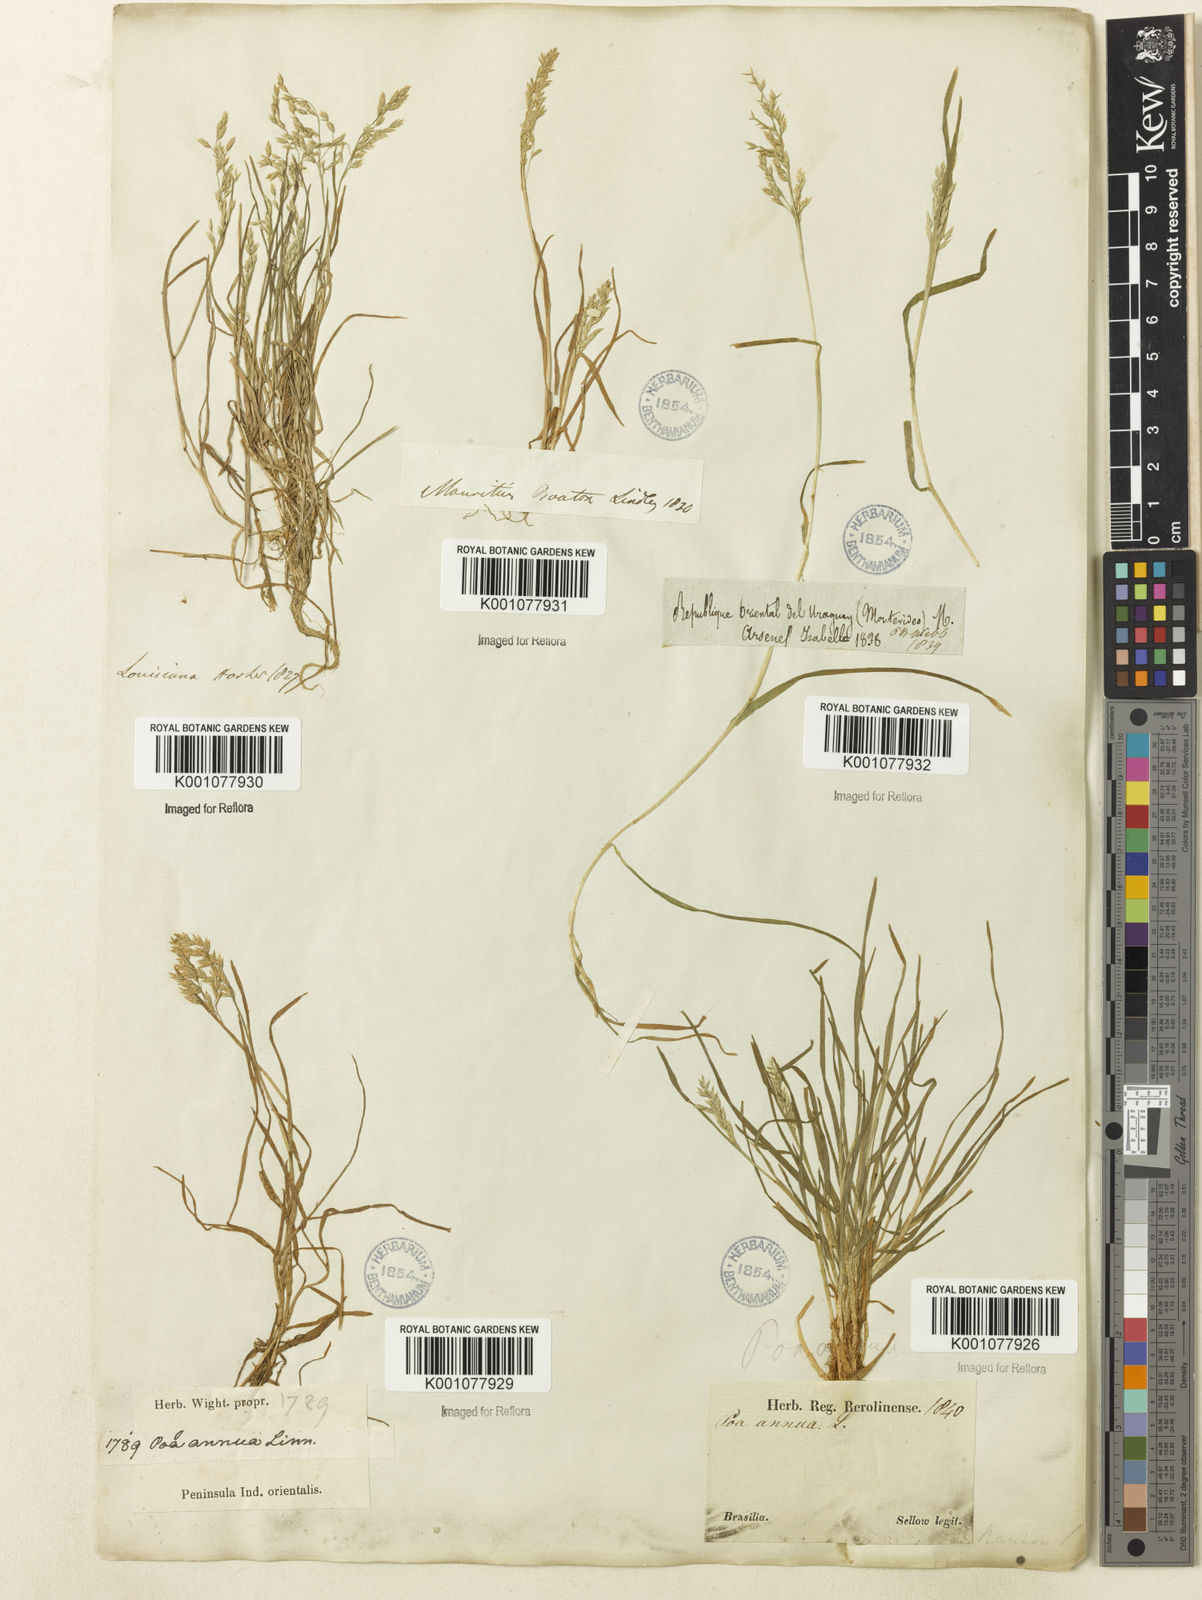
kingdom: Plantae
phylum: Tracheophyta
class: Liliopsida
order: Poales
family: Poaceae
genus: Poa
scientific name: Poa annua
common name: Annual bluegrass
